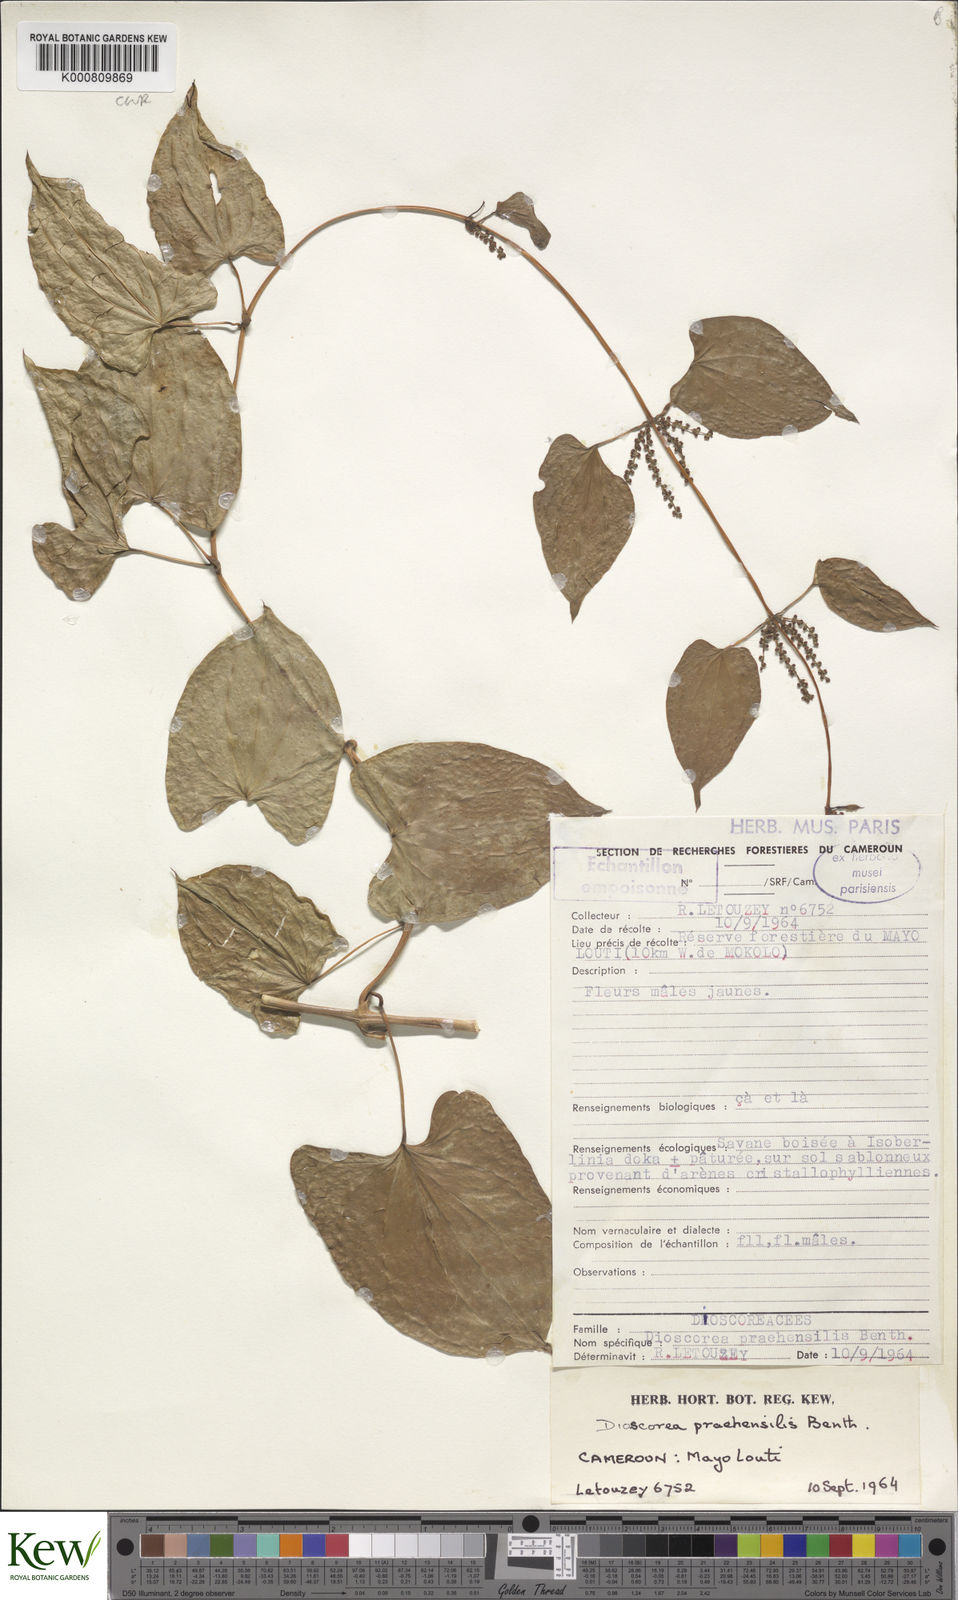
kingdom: Plantae
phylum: Tracheophyta
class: Liliopsida
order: Dioscoreales
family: Dioscoreaceae
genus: Dioscorea
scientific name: Dioscorea praehensilis
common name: Bush yam
